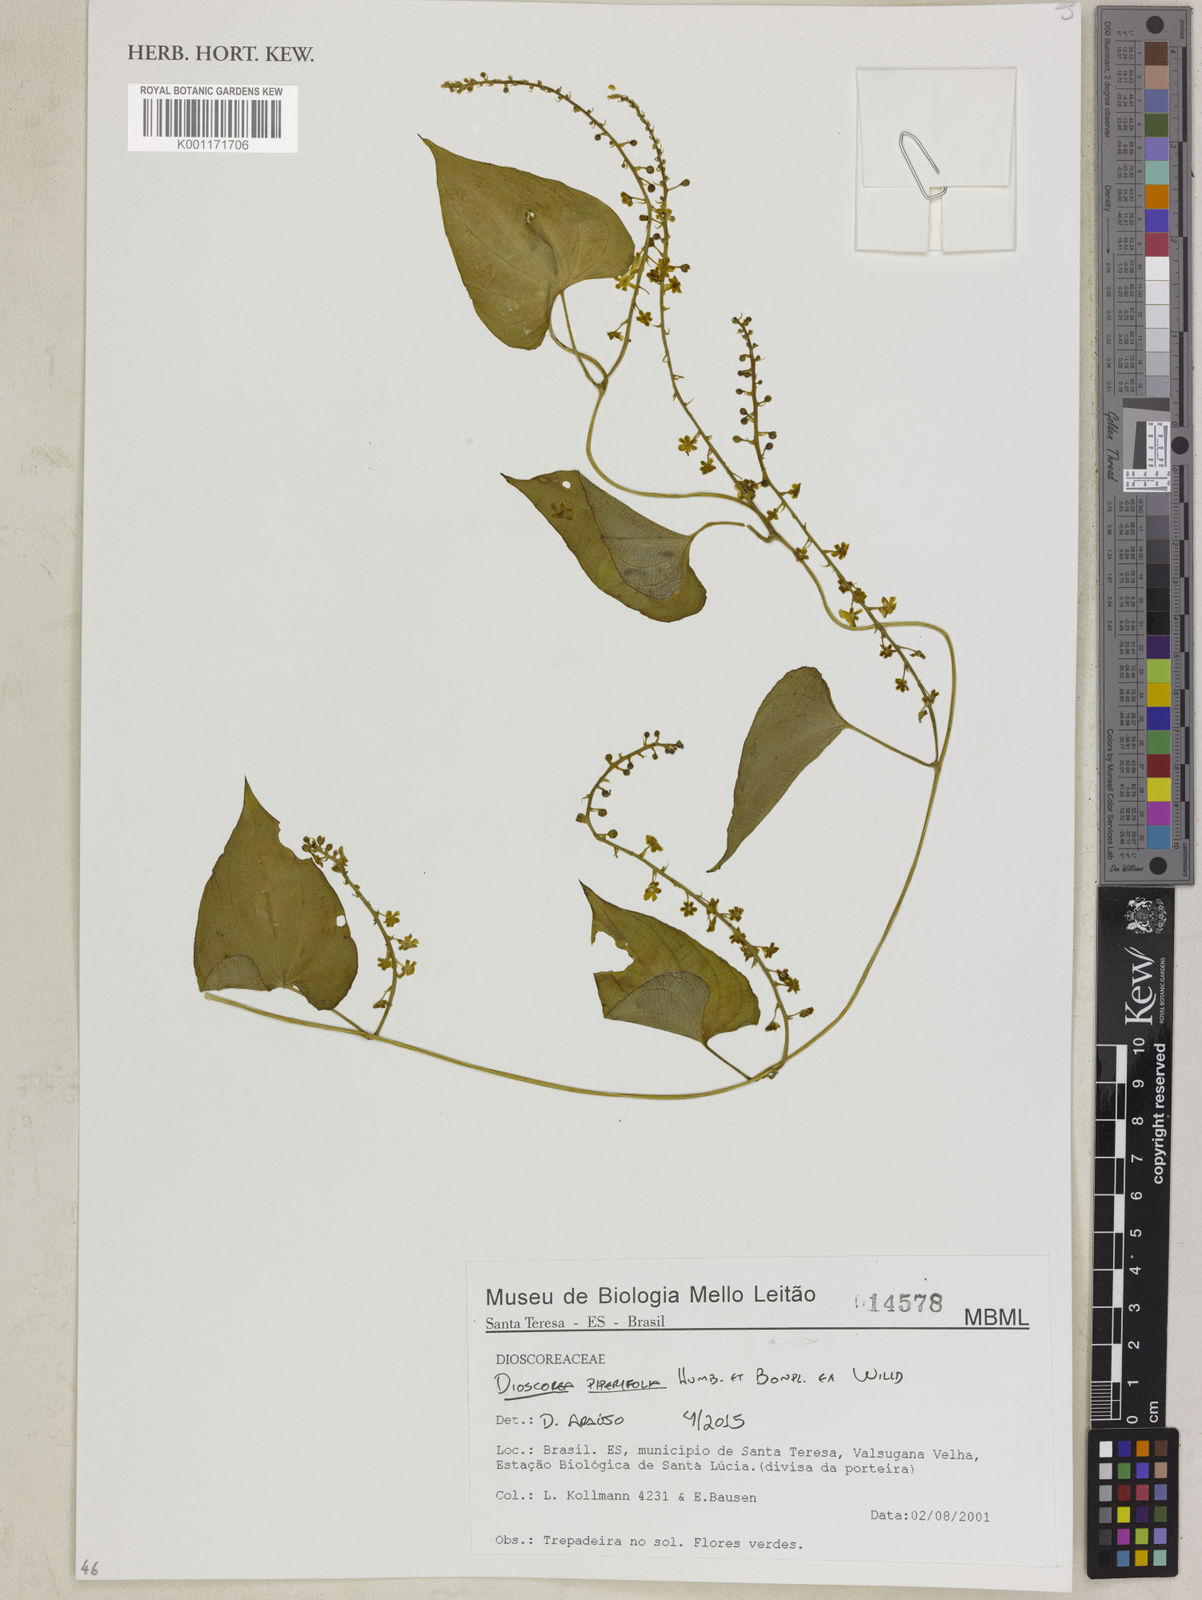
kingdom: Plantae
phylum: Tracheophyta
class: Liliopsida
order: Dioscoreales
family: Dioscoreaceae
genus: Dioscorea
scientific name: Dioscorea piperifolia
